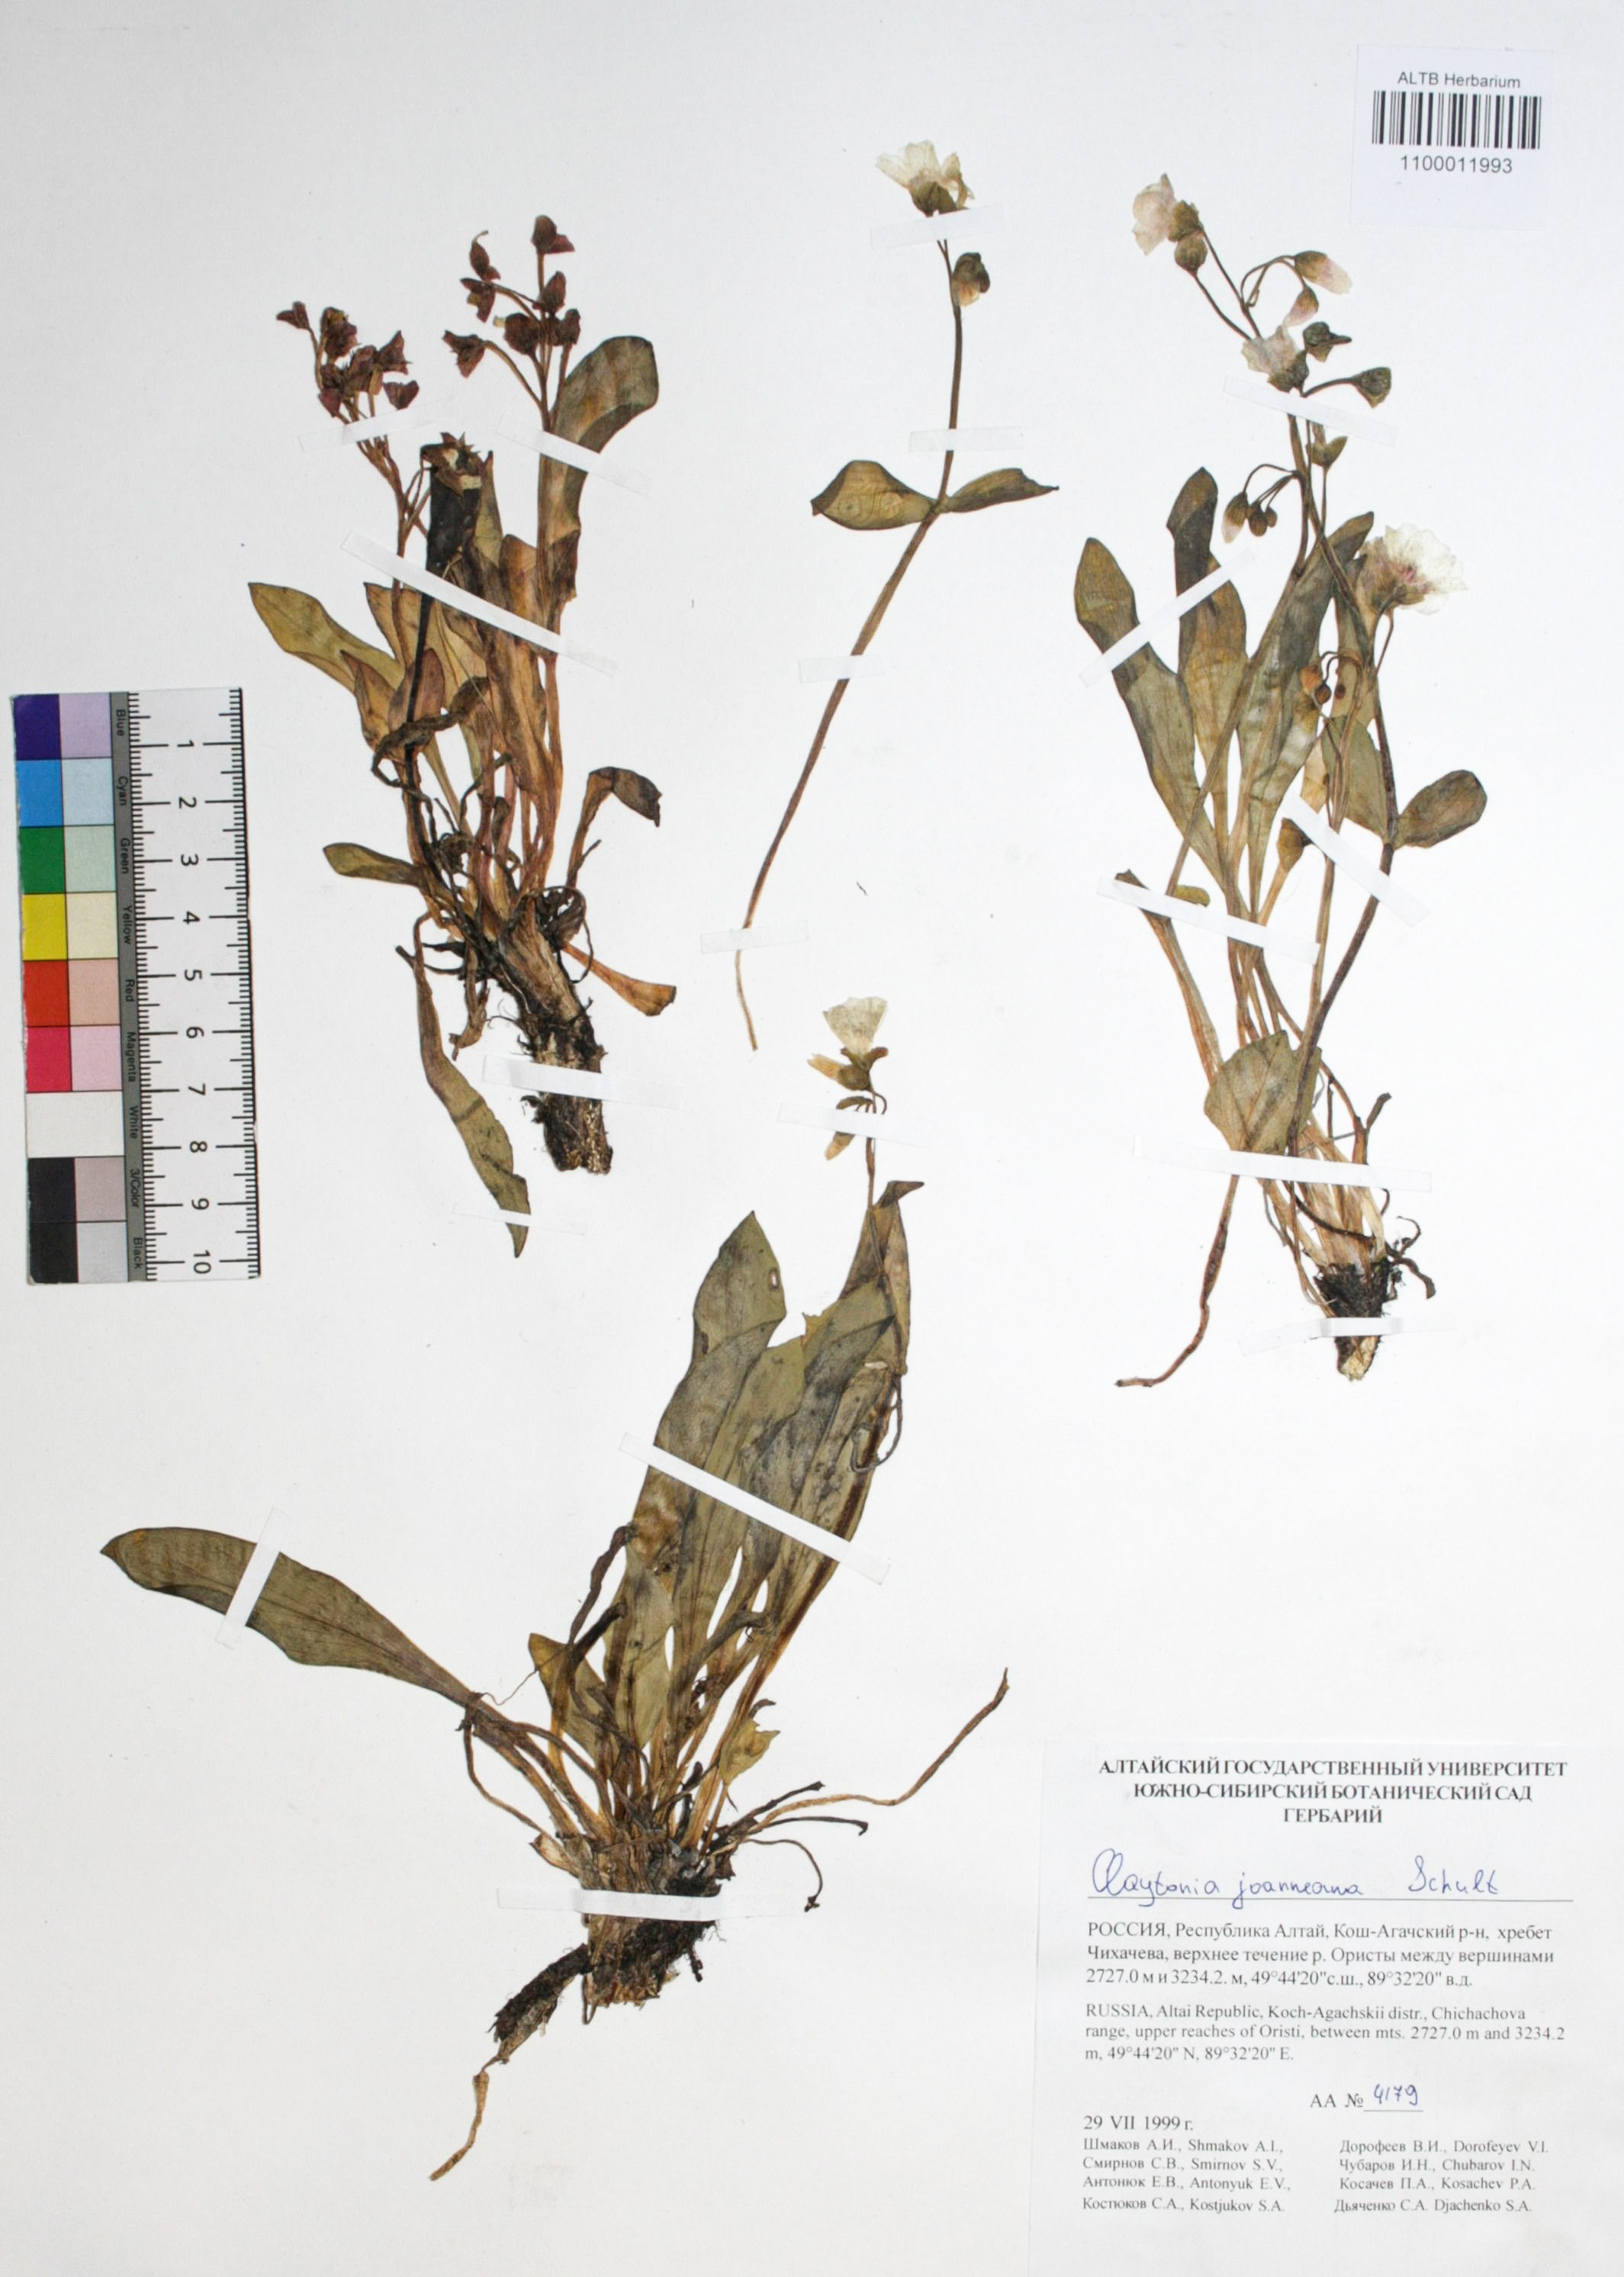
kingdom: Plantae
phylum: Tracheophyta
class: Magnoliopsida
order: Caryophyllales
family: Montiaceae
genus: Claytonia
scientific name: Claytonia joanneana
